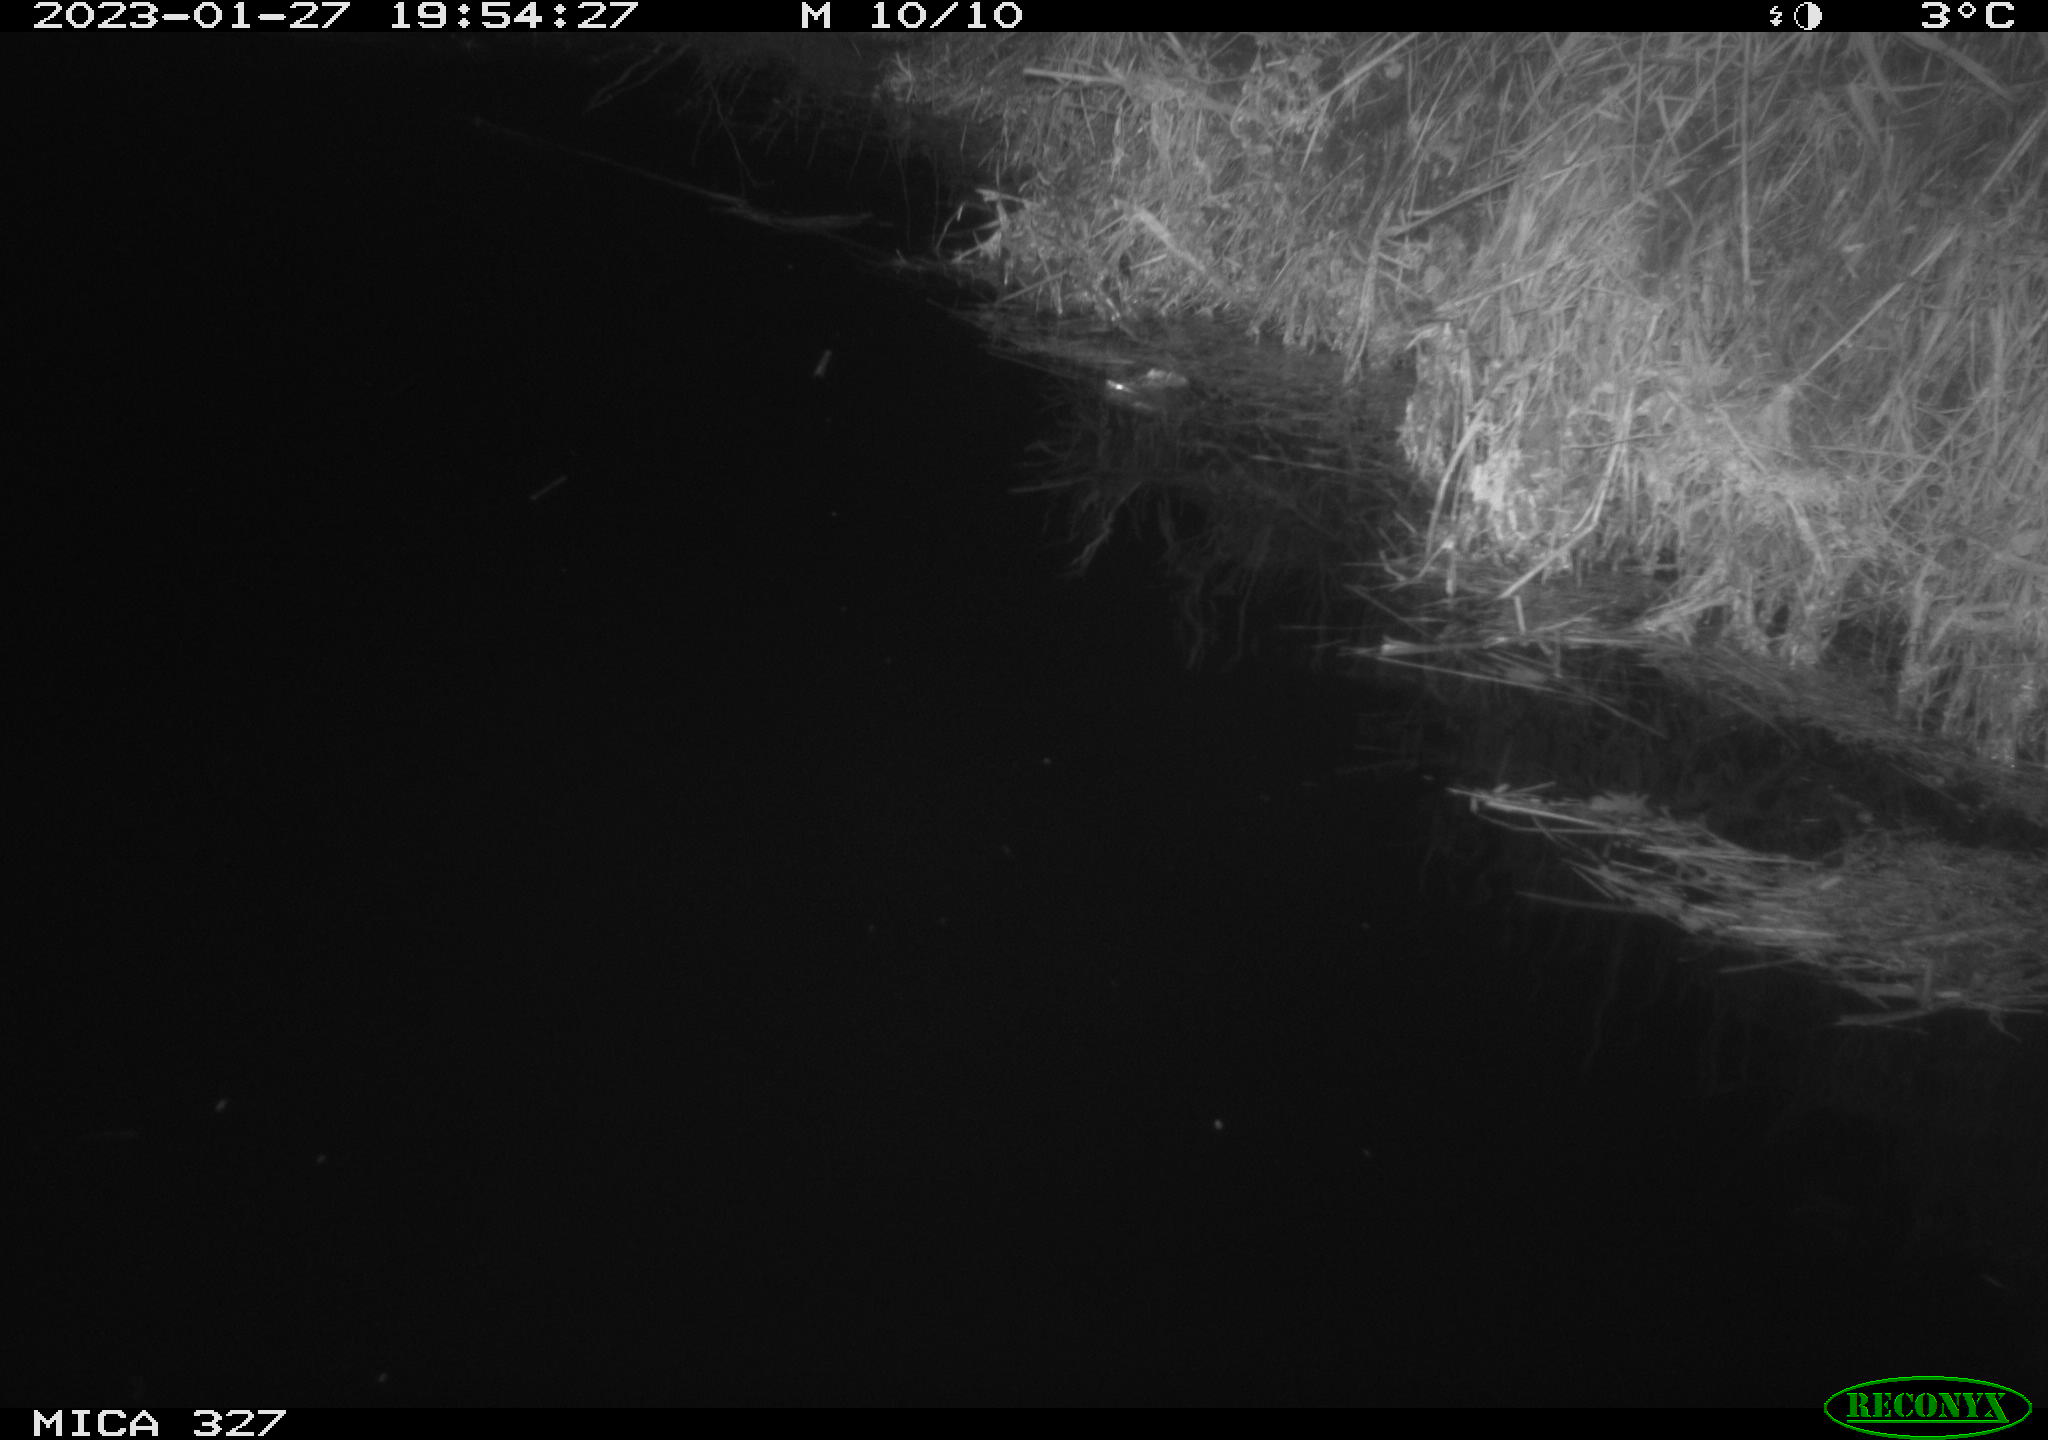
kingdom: Animalia
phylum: Chordata
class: Mammalia
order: Rodentia
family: Cricetidae
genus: Ondatra
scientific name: Ondatra zibethicus
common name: Muskrat
